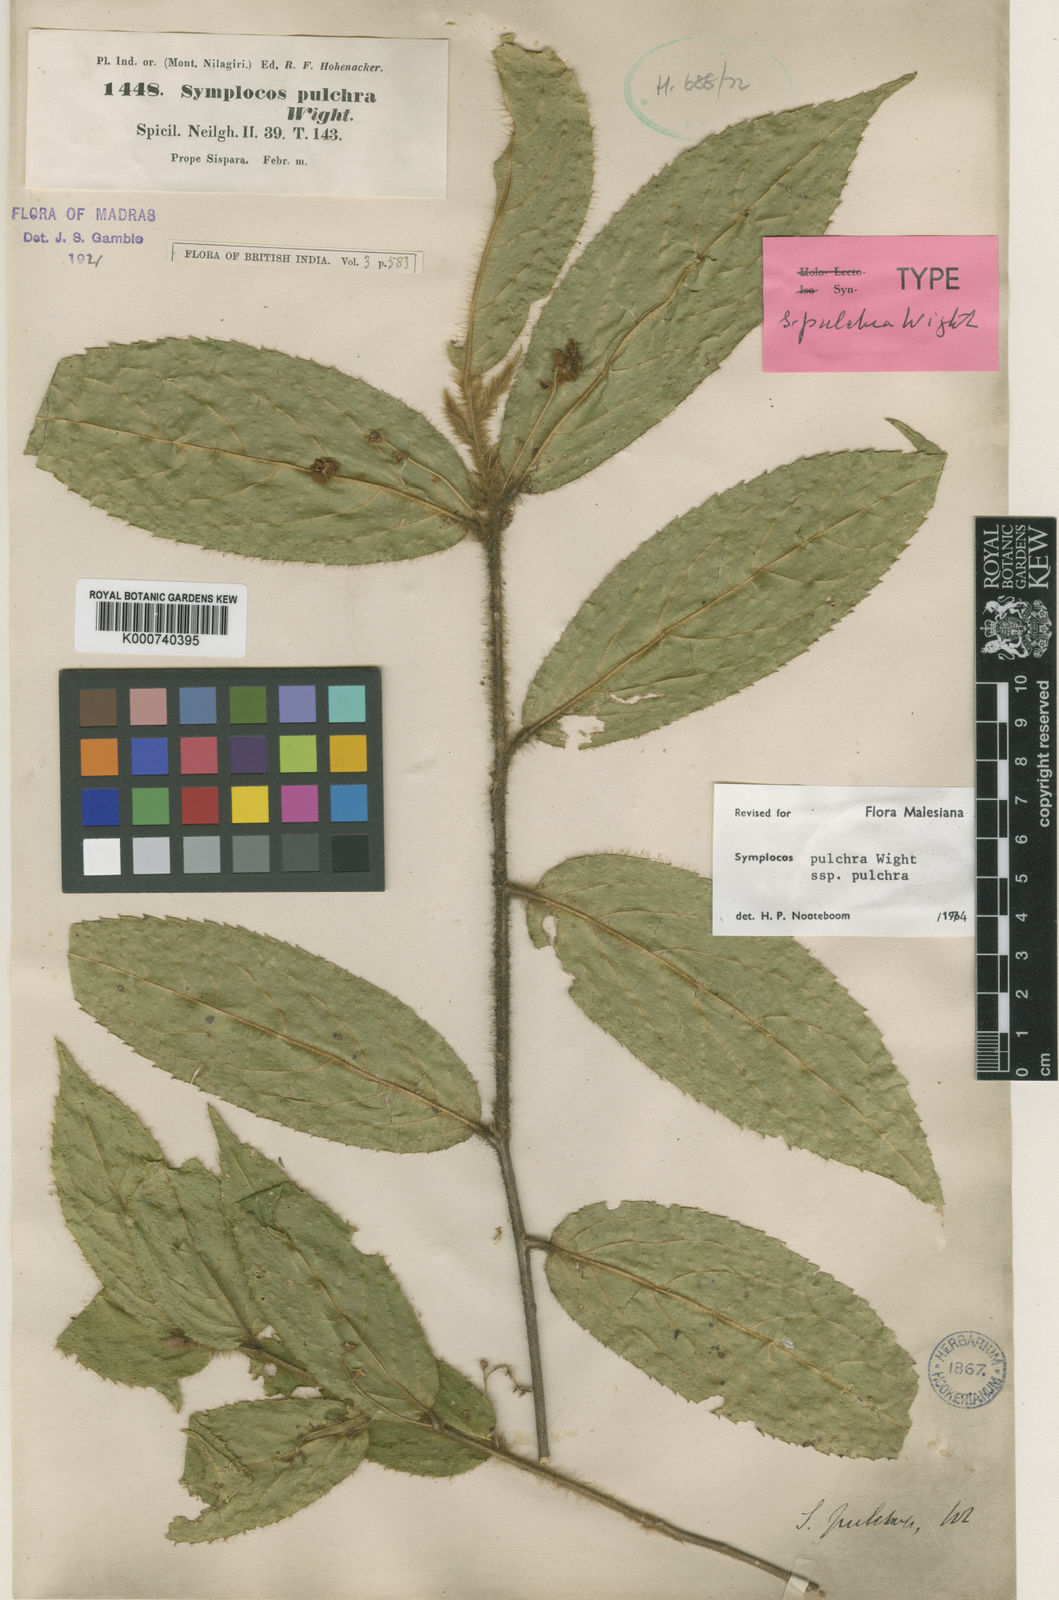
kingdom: Plantae
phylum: Tracheophyta
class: Magnoliopsida
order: Ericales
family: Symplocaceae
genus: Symplocos
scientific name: Symplocos pulchra
